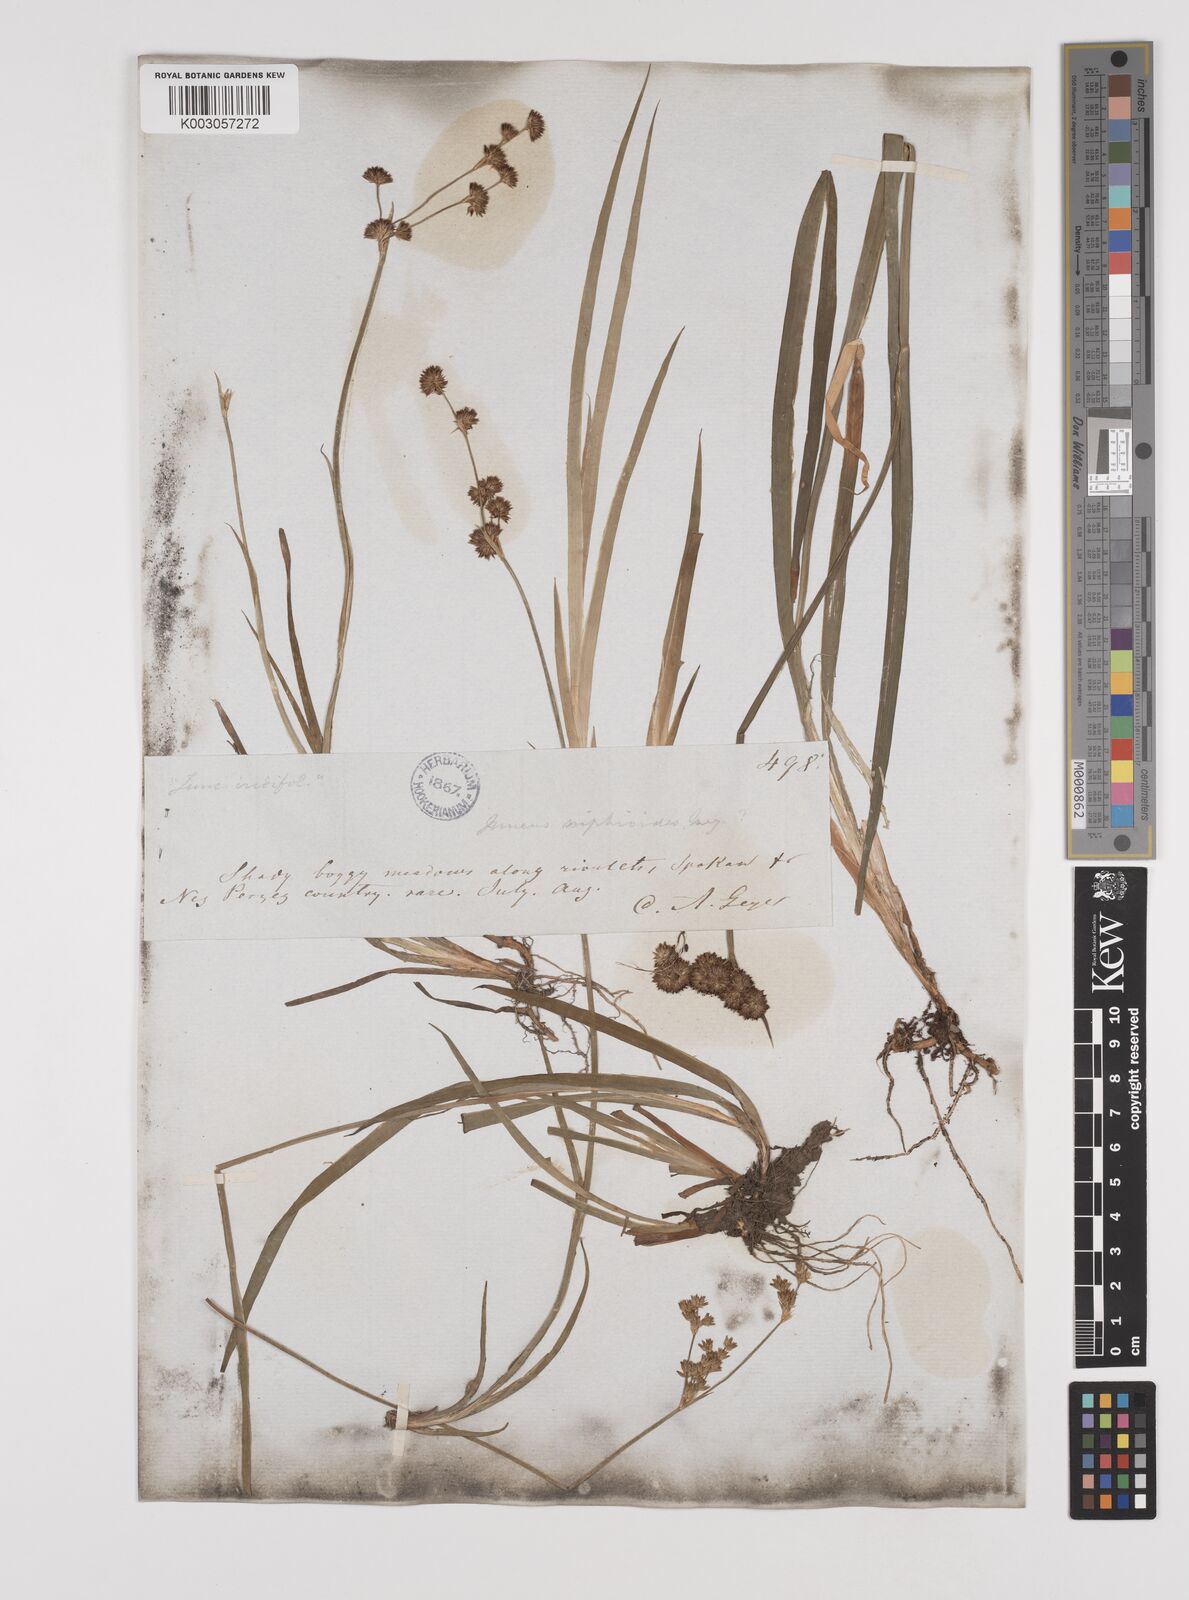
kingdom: Plantae
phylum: Tracheophyta
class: Liliopsida
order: Poales
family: Juncaceae
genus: Juncus
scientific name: Juncus xiphioides
